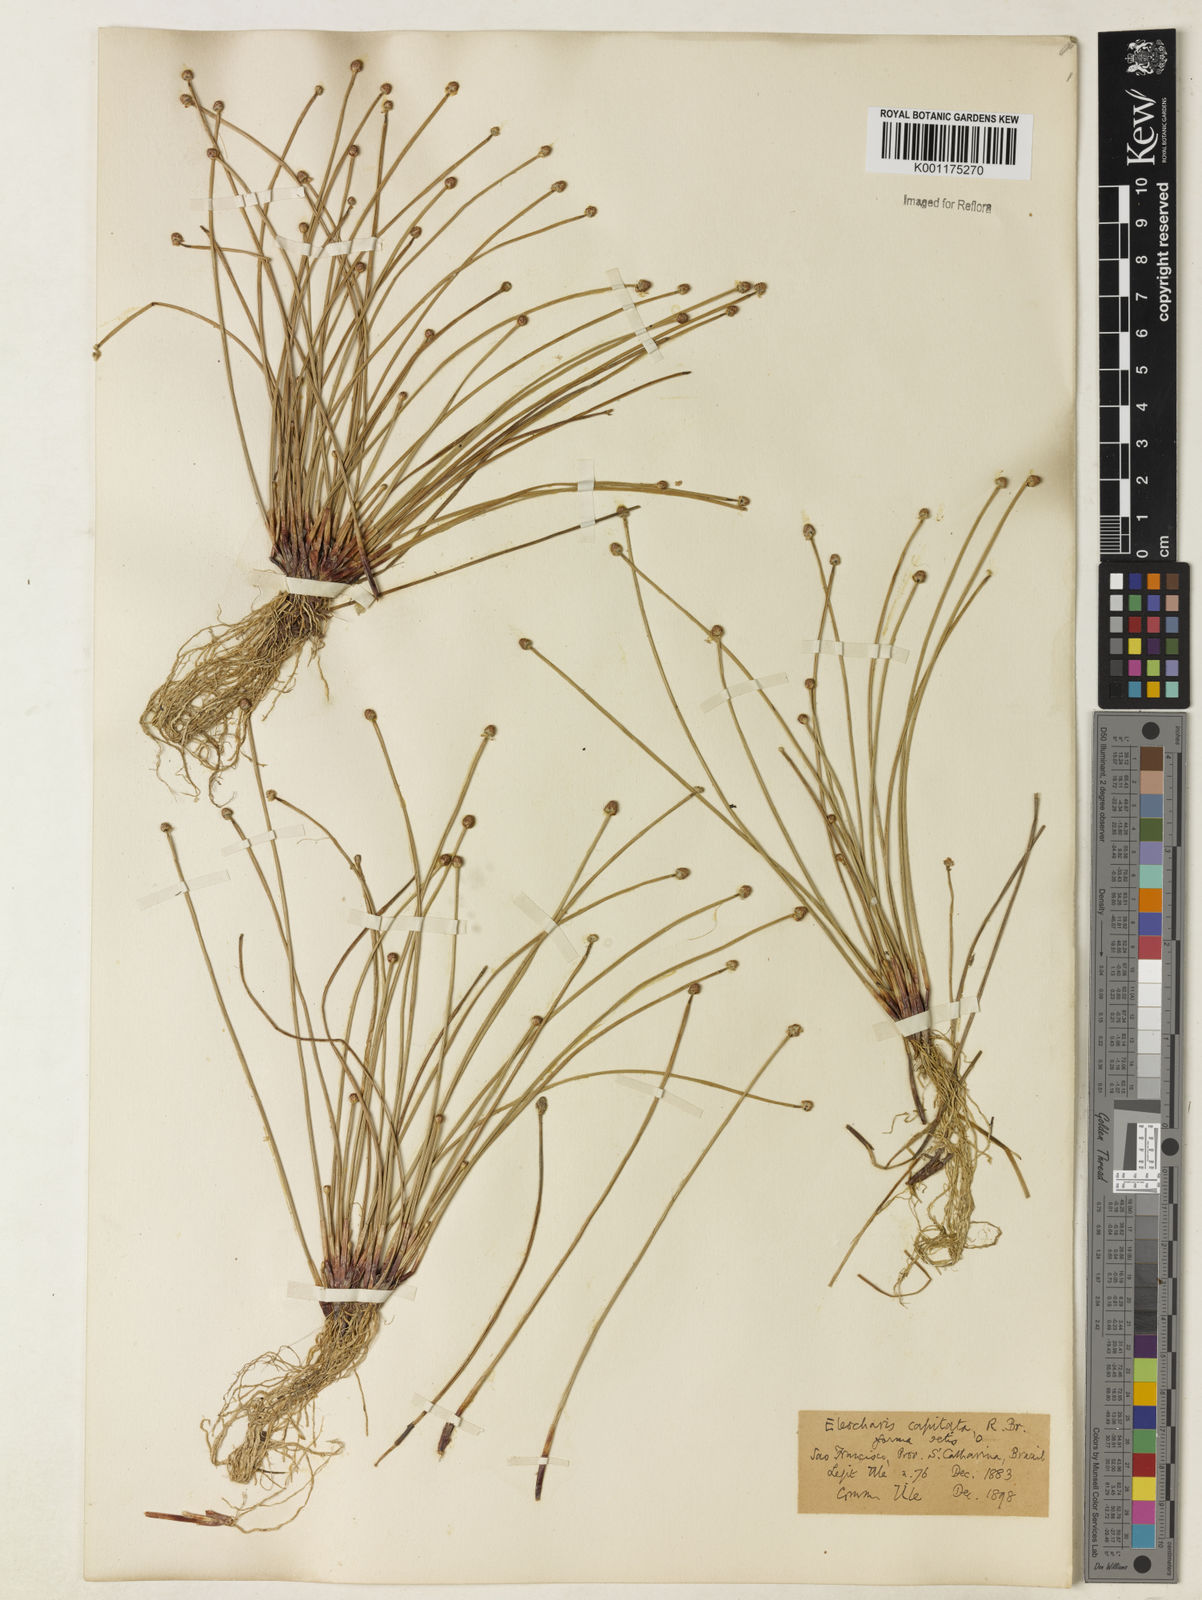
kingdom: Plantae
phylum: Tracheophyta
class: Liliopsida
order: Poales
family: Cyperaceae
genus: Eleocharis
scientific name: Eleocharis geniculata
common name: Canada spikesedge
